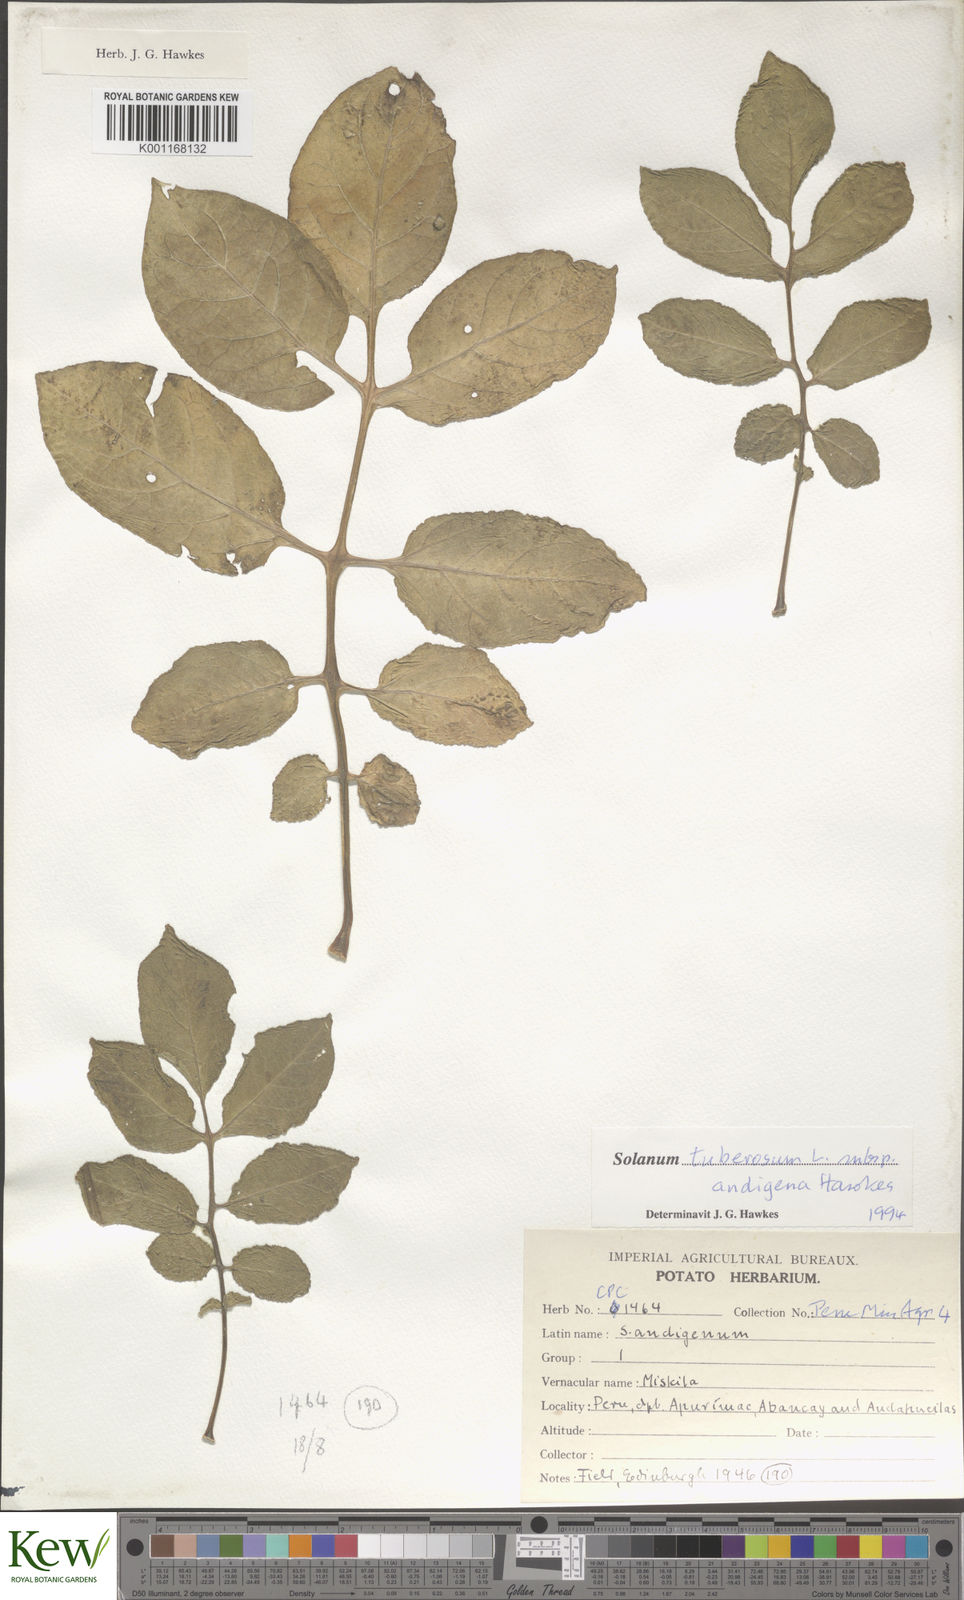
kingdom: Plantae
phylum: Tracheophyta
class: Magnoliopsida
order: Solanales
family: Solanaceae
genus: Solanum
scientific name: Solanum tuberosum
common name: Potato
